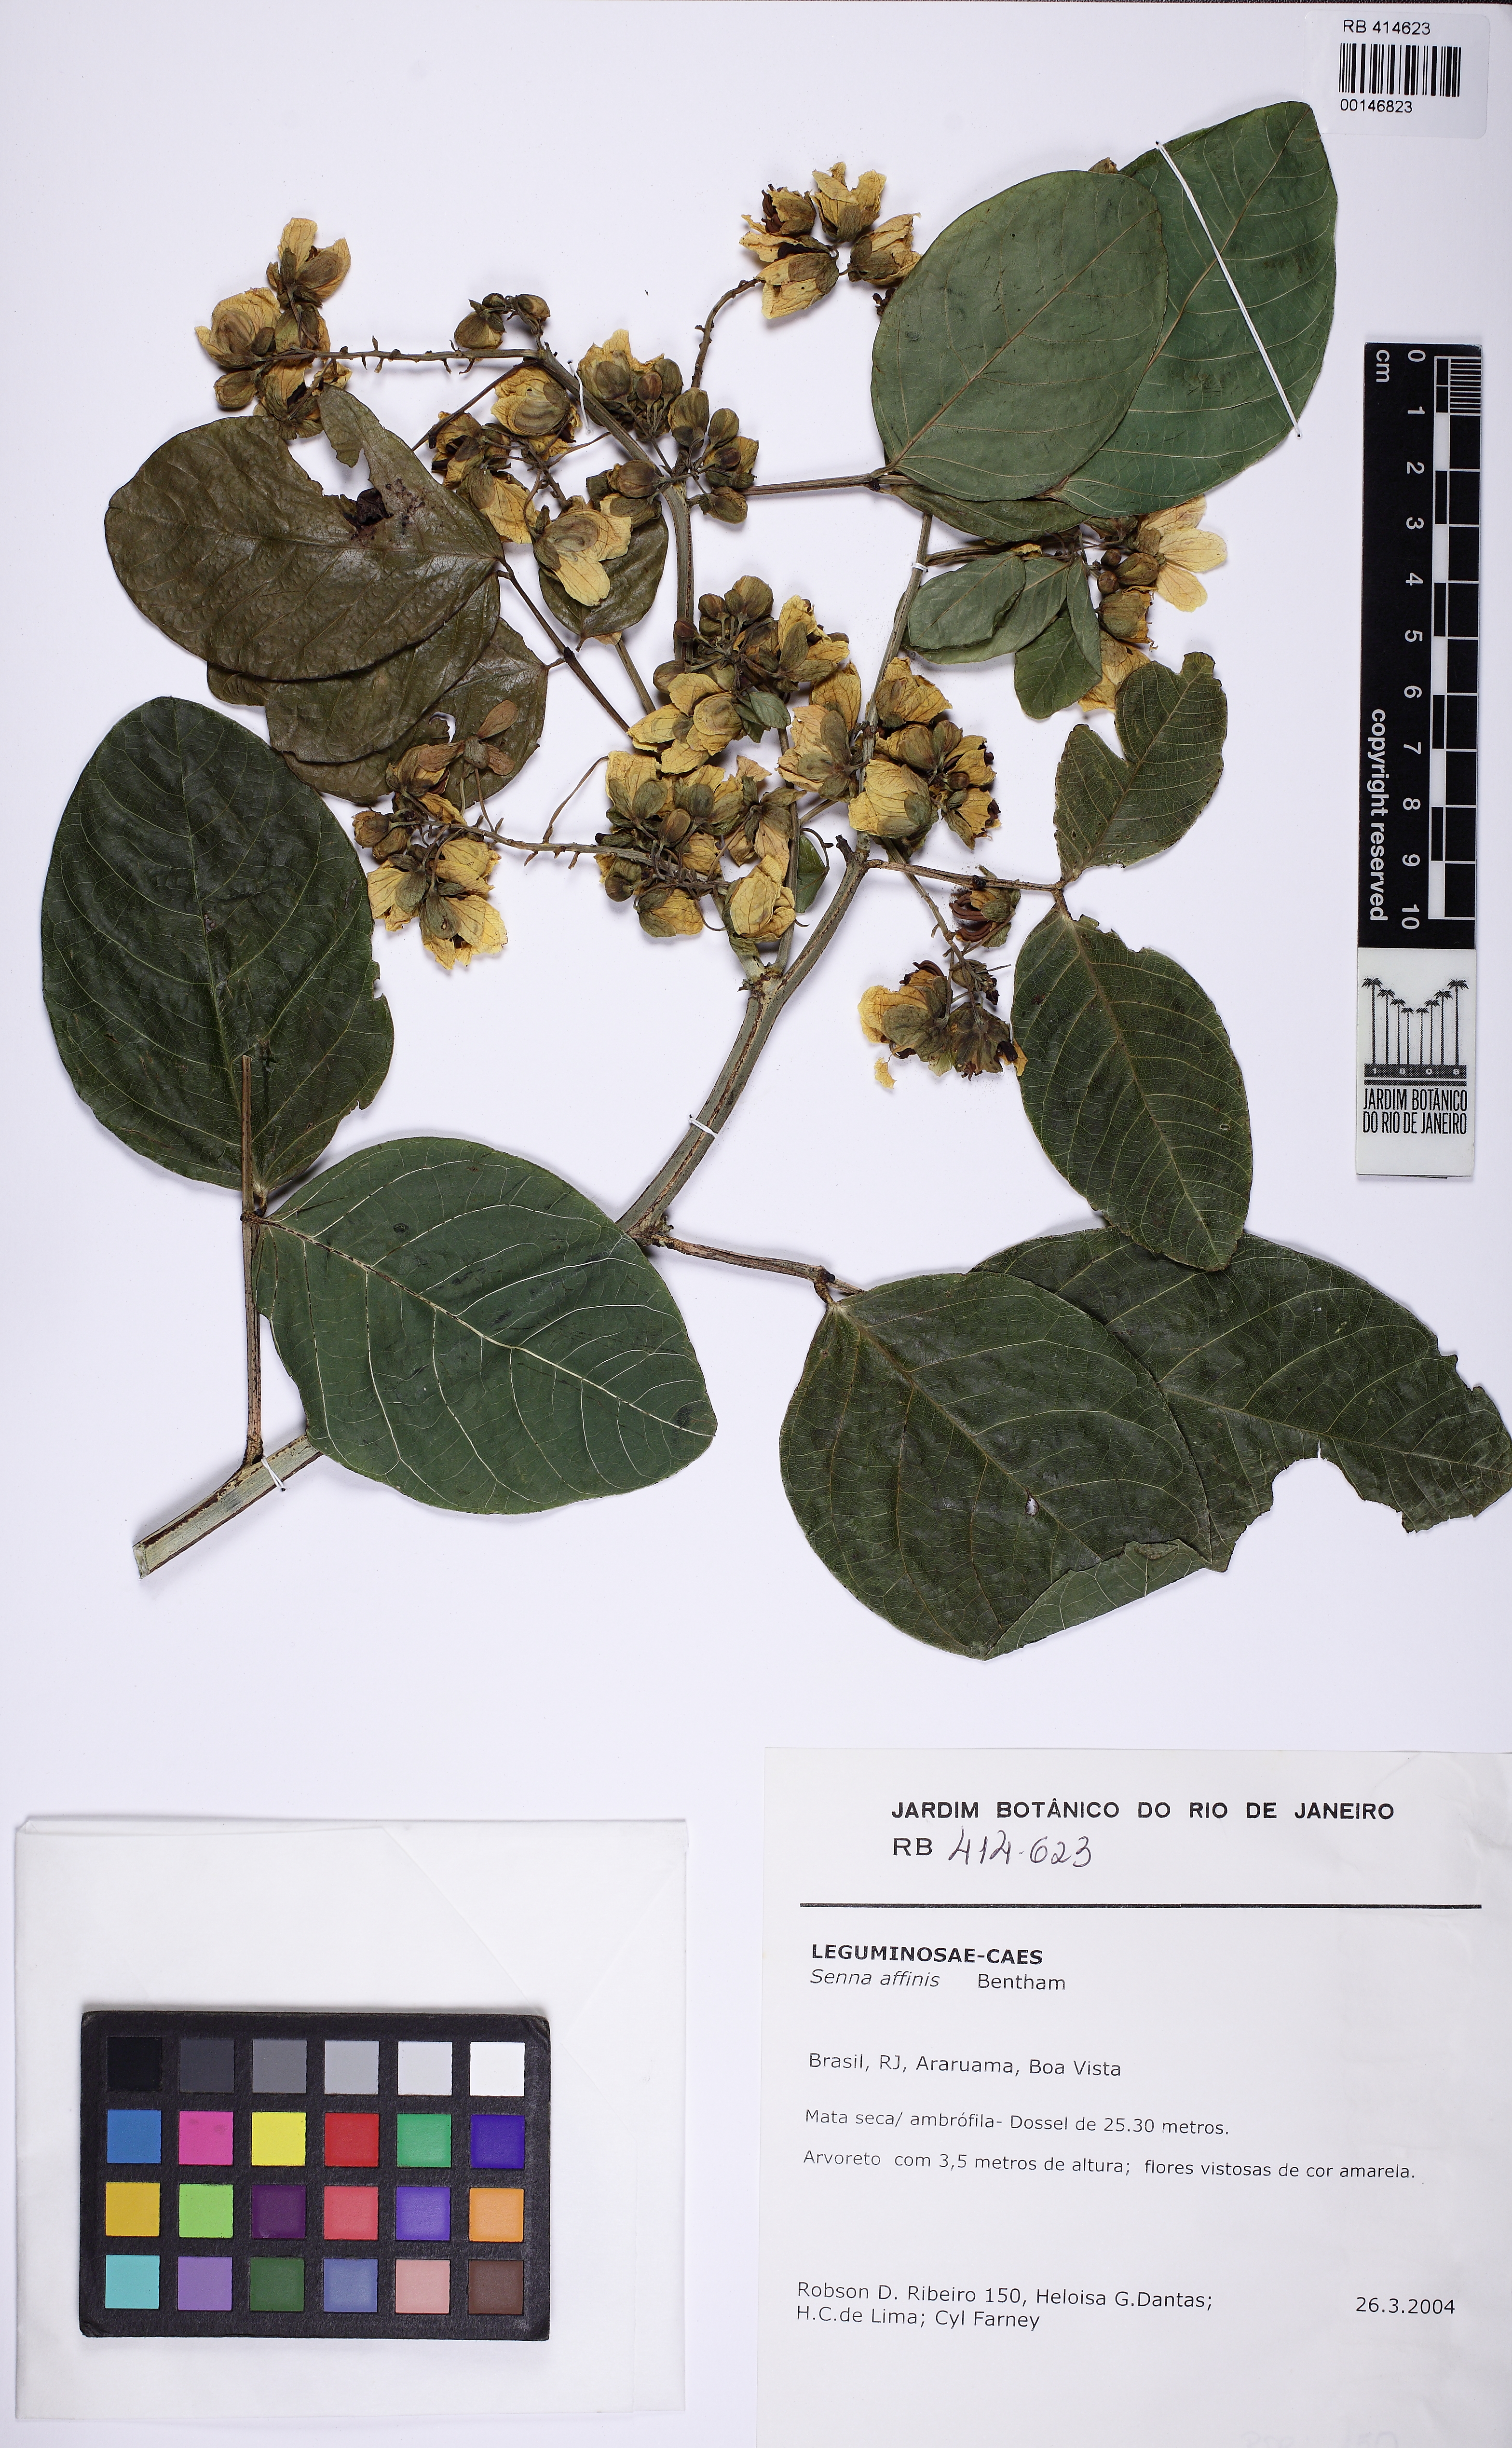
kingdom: Plantae
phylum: Tracheophyta
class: Magnoliopsida
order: Fabales
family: Fabaceae
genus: Senna
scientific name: Senna affinis
